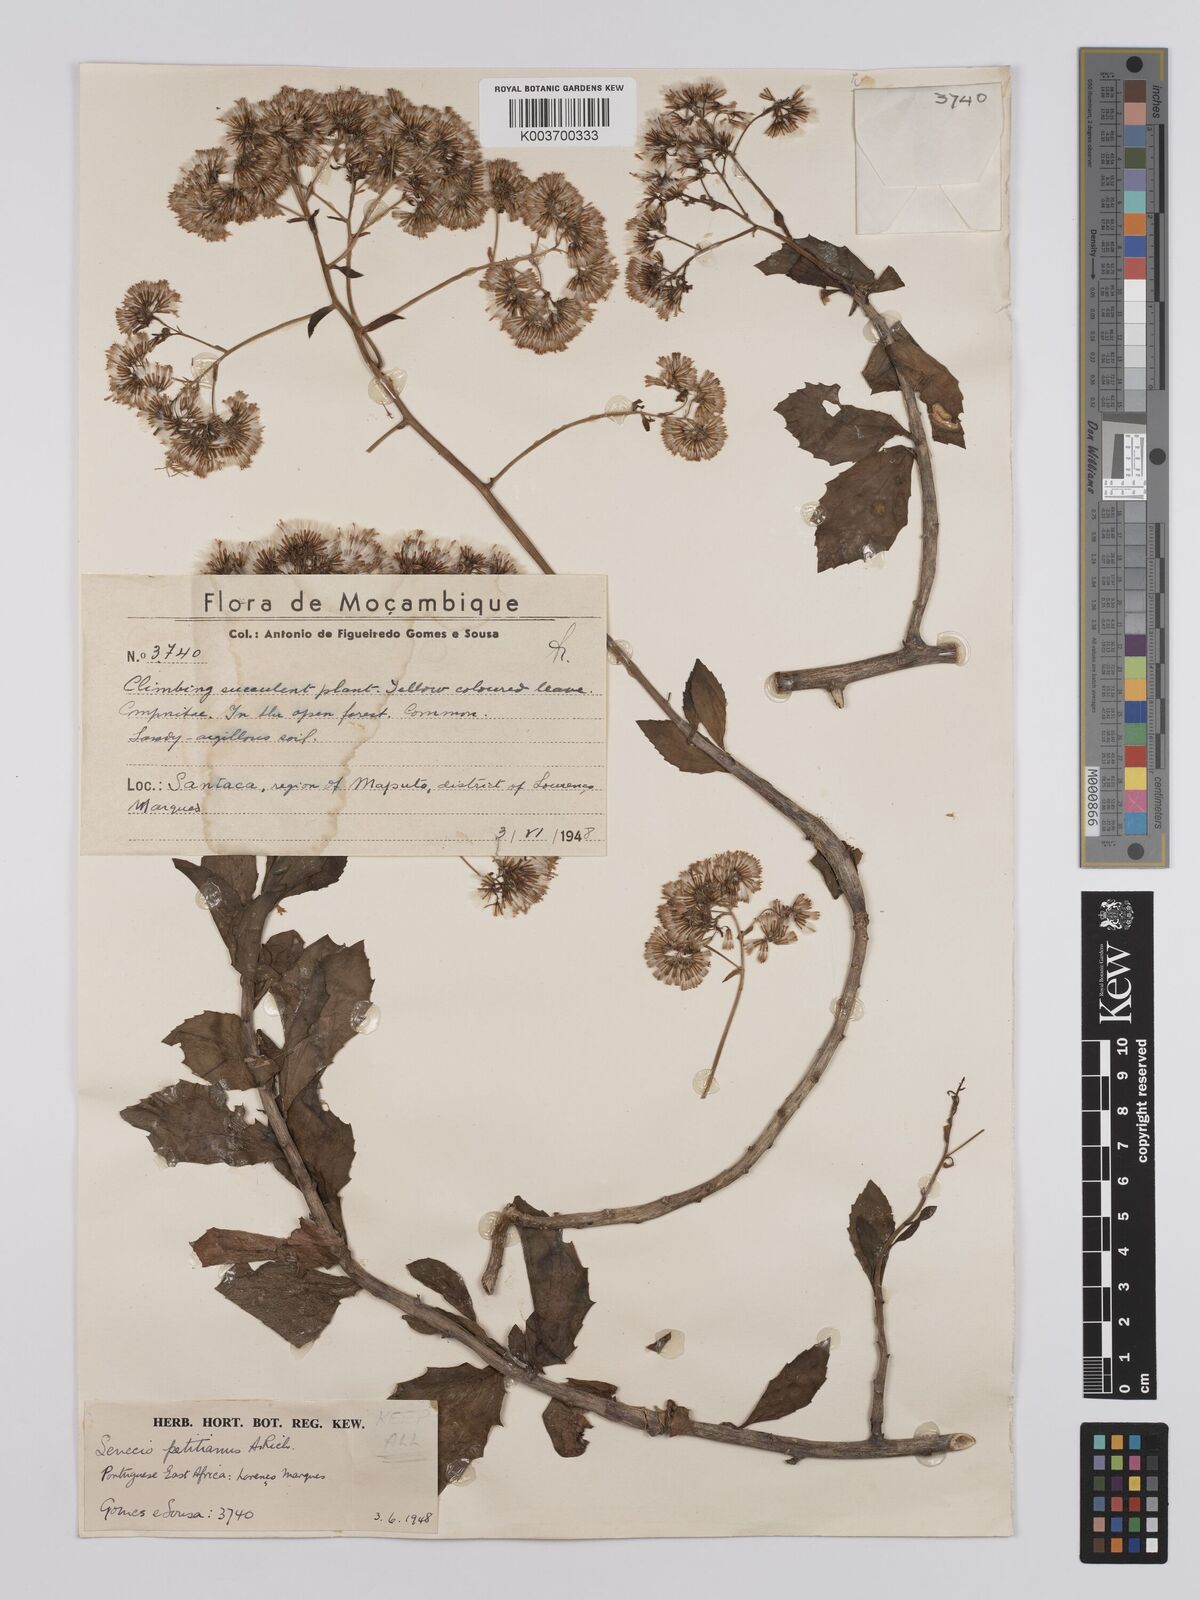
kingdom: Plantae
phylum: Tracheophyta
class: Magnoliopsida
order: Asterales
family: Asteraceae
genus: Senecio
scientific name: Senecio brachypodus
